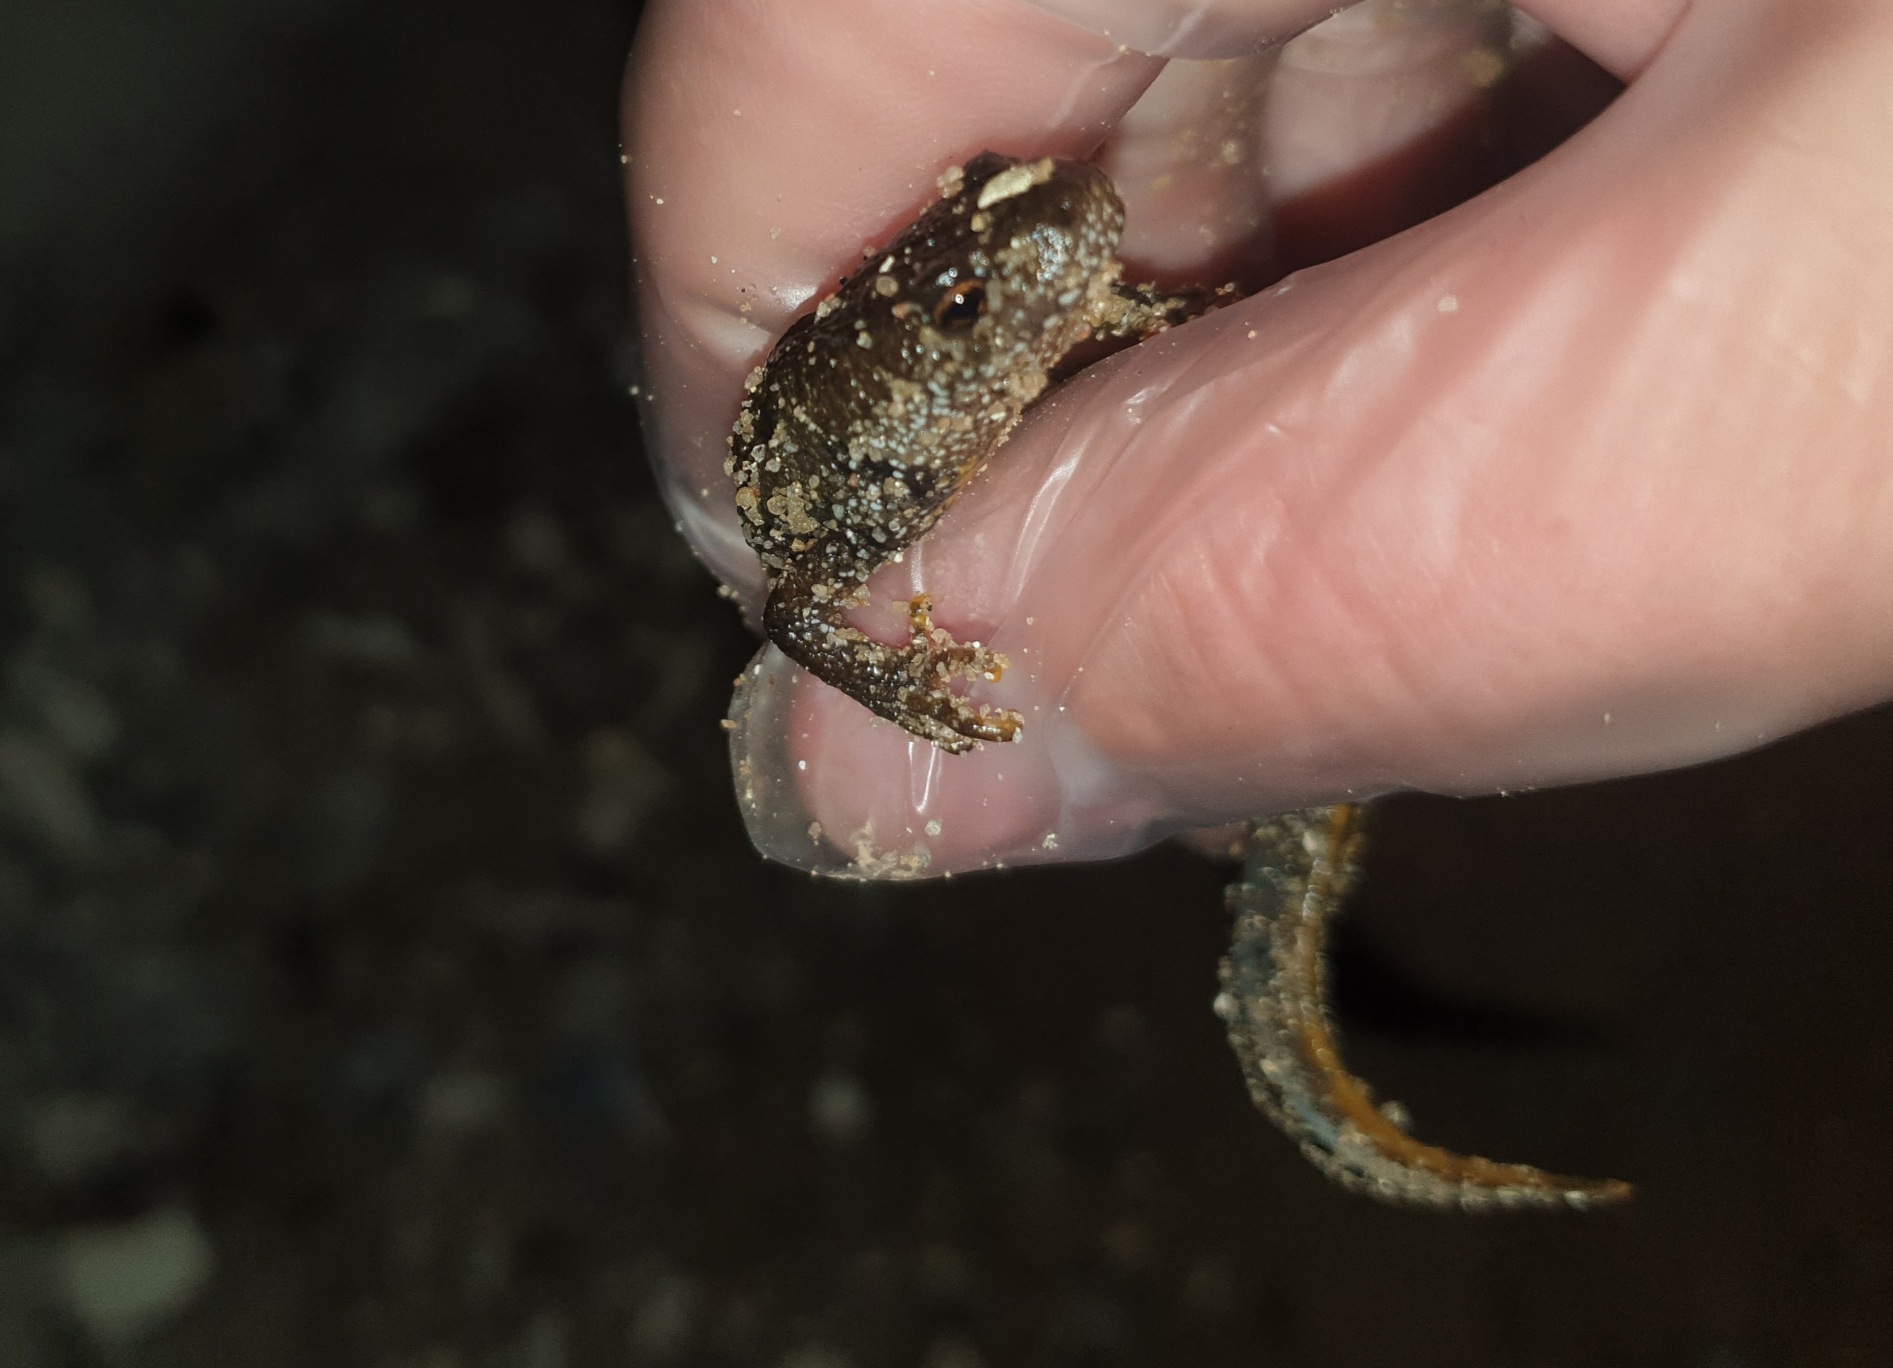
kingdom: Animalia
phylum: Chordata
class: Amphibia
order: Caudata
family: Salamandridae
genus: Triturus
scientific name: Triturus cristatus
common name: Stor vandsalamander
